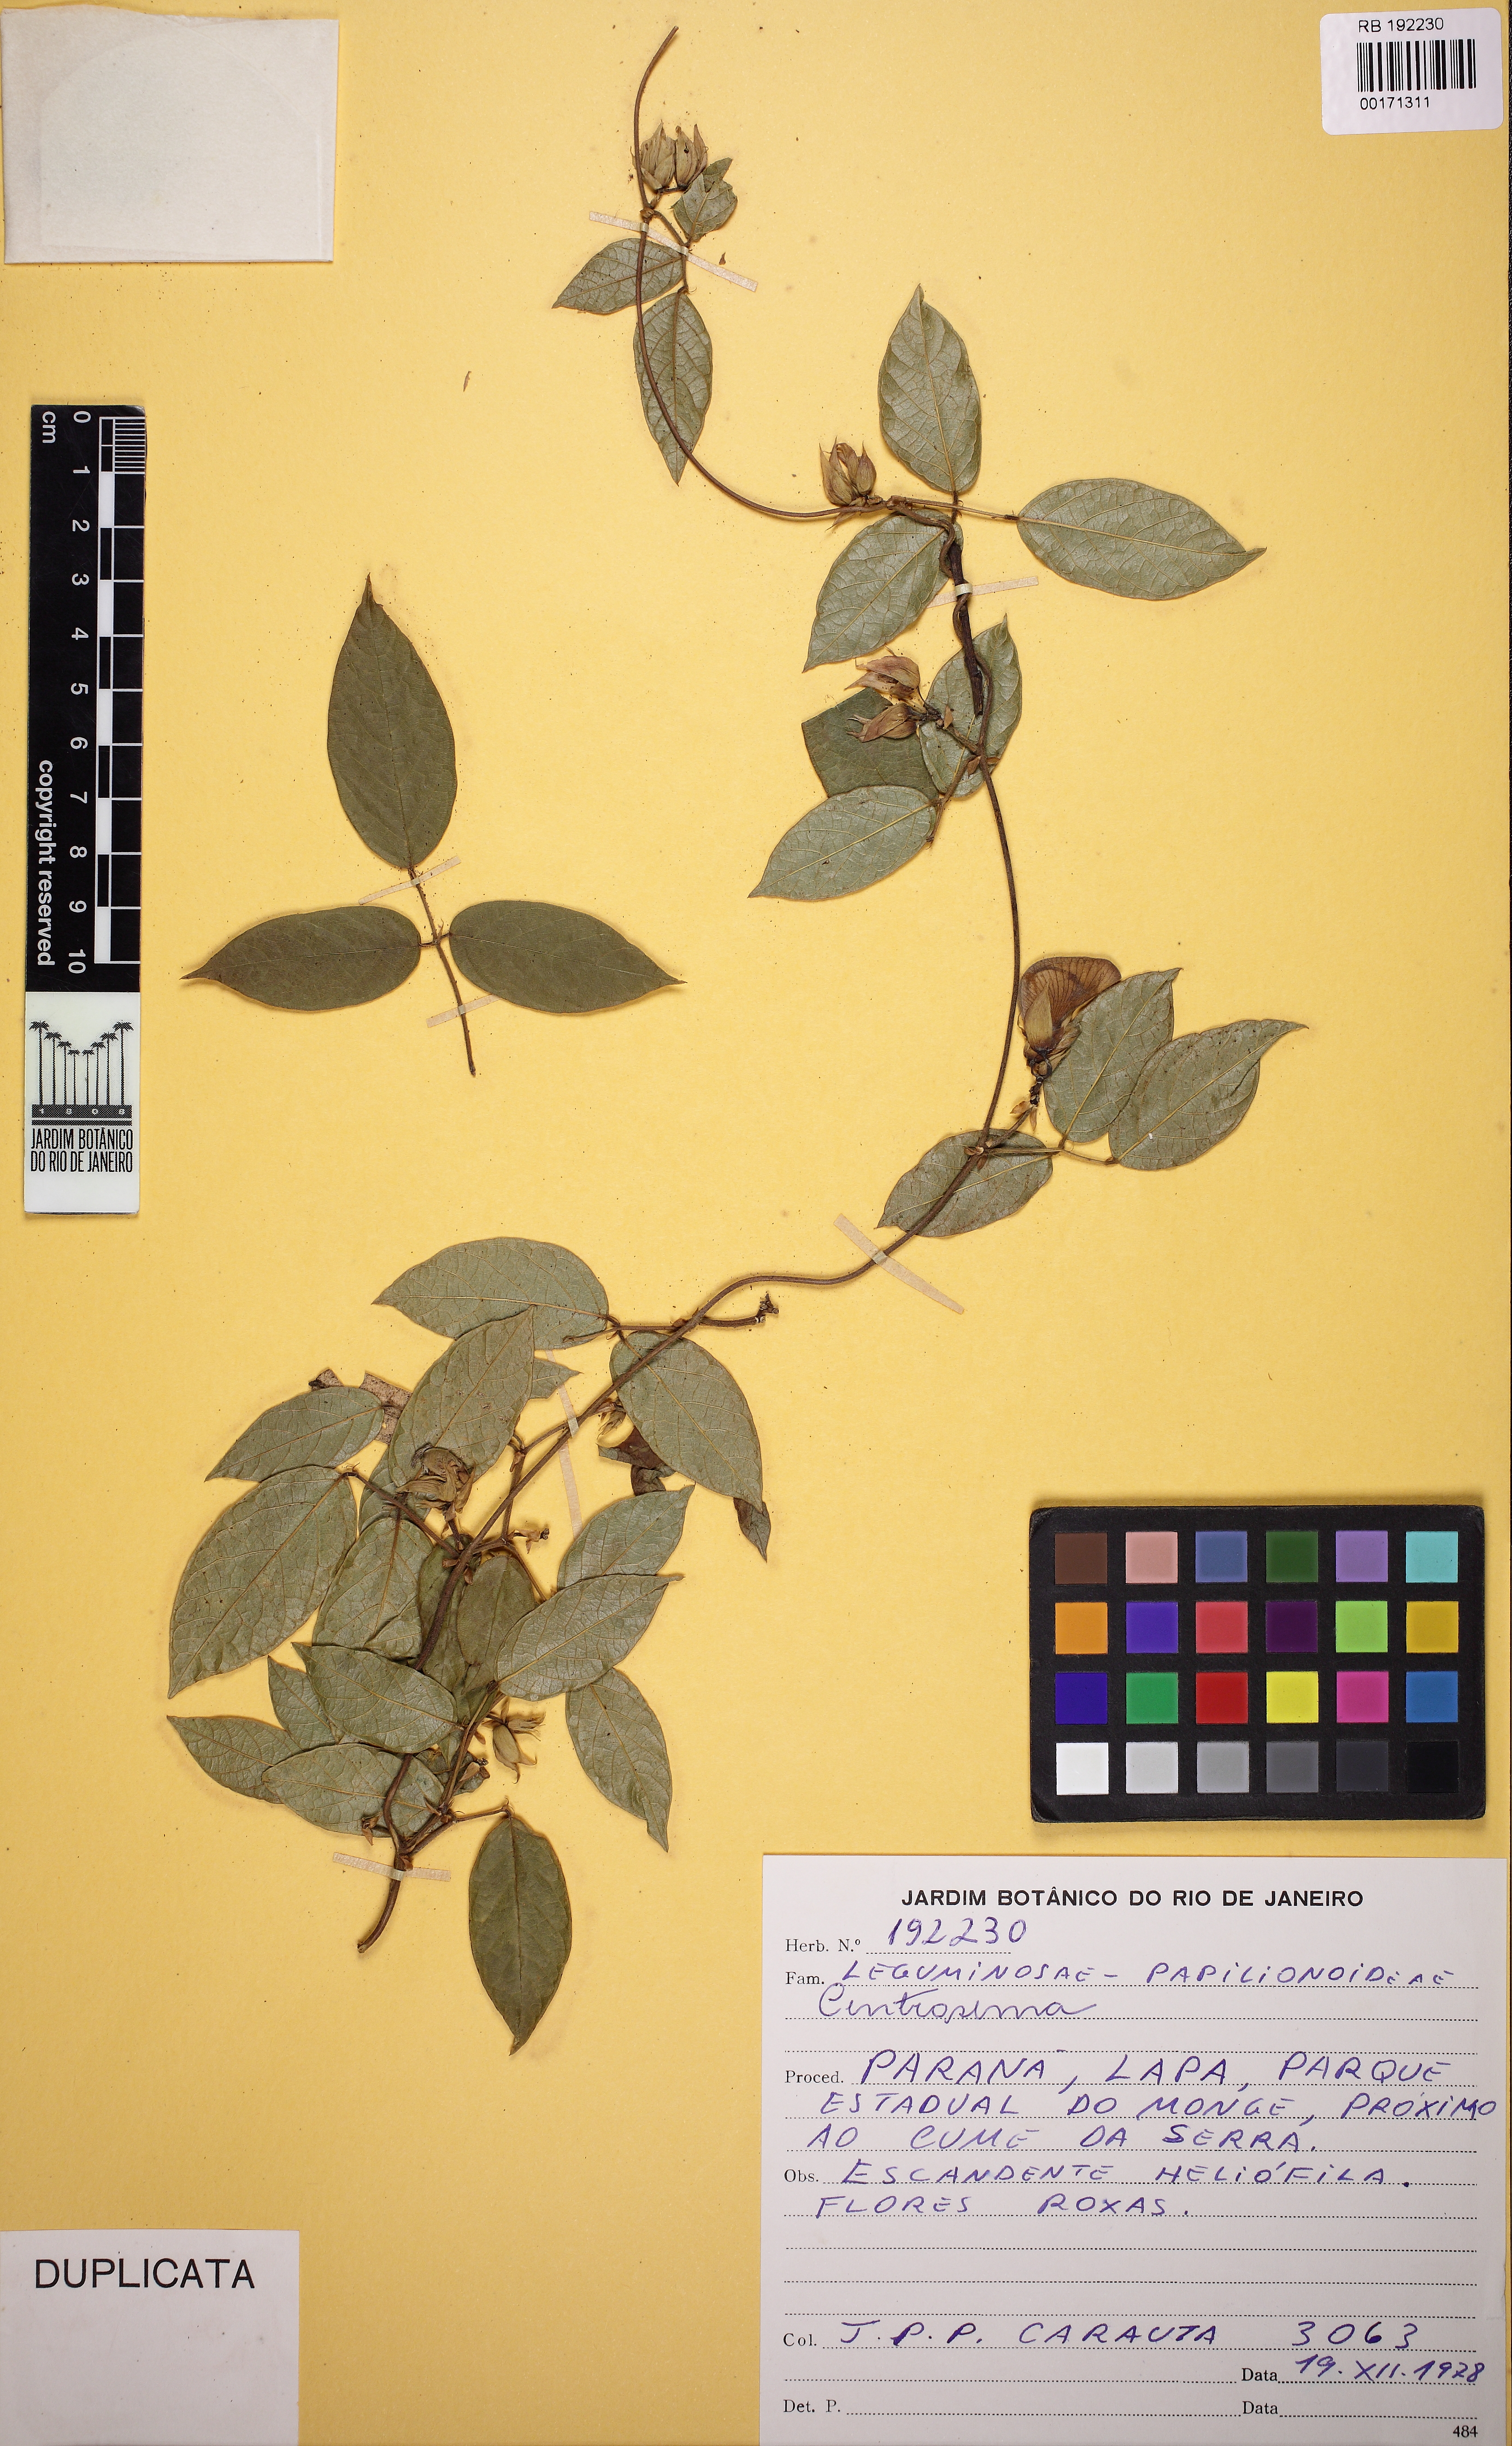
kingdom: Plantae
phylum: Tracheophyta
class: Magnoliopsida
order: Fabales
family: Fabaceae
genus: Centrosema
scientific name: Centrosema
